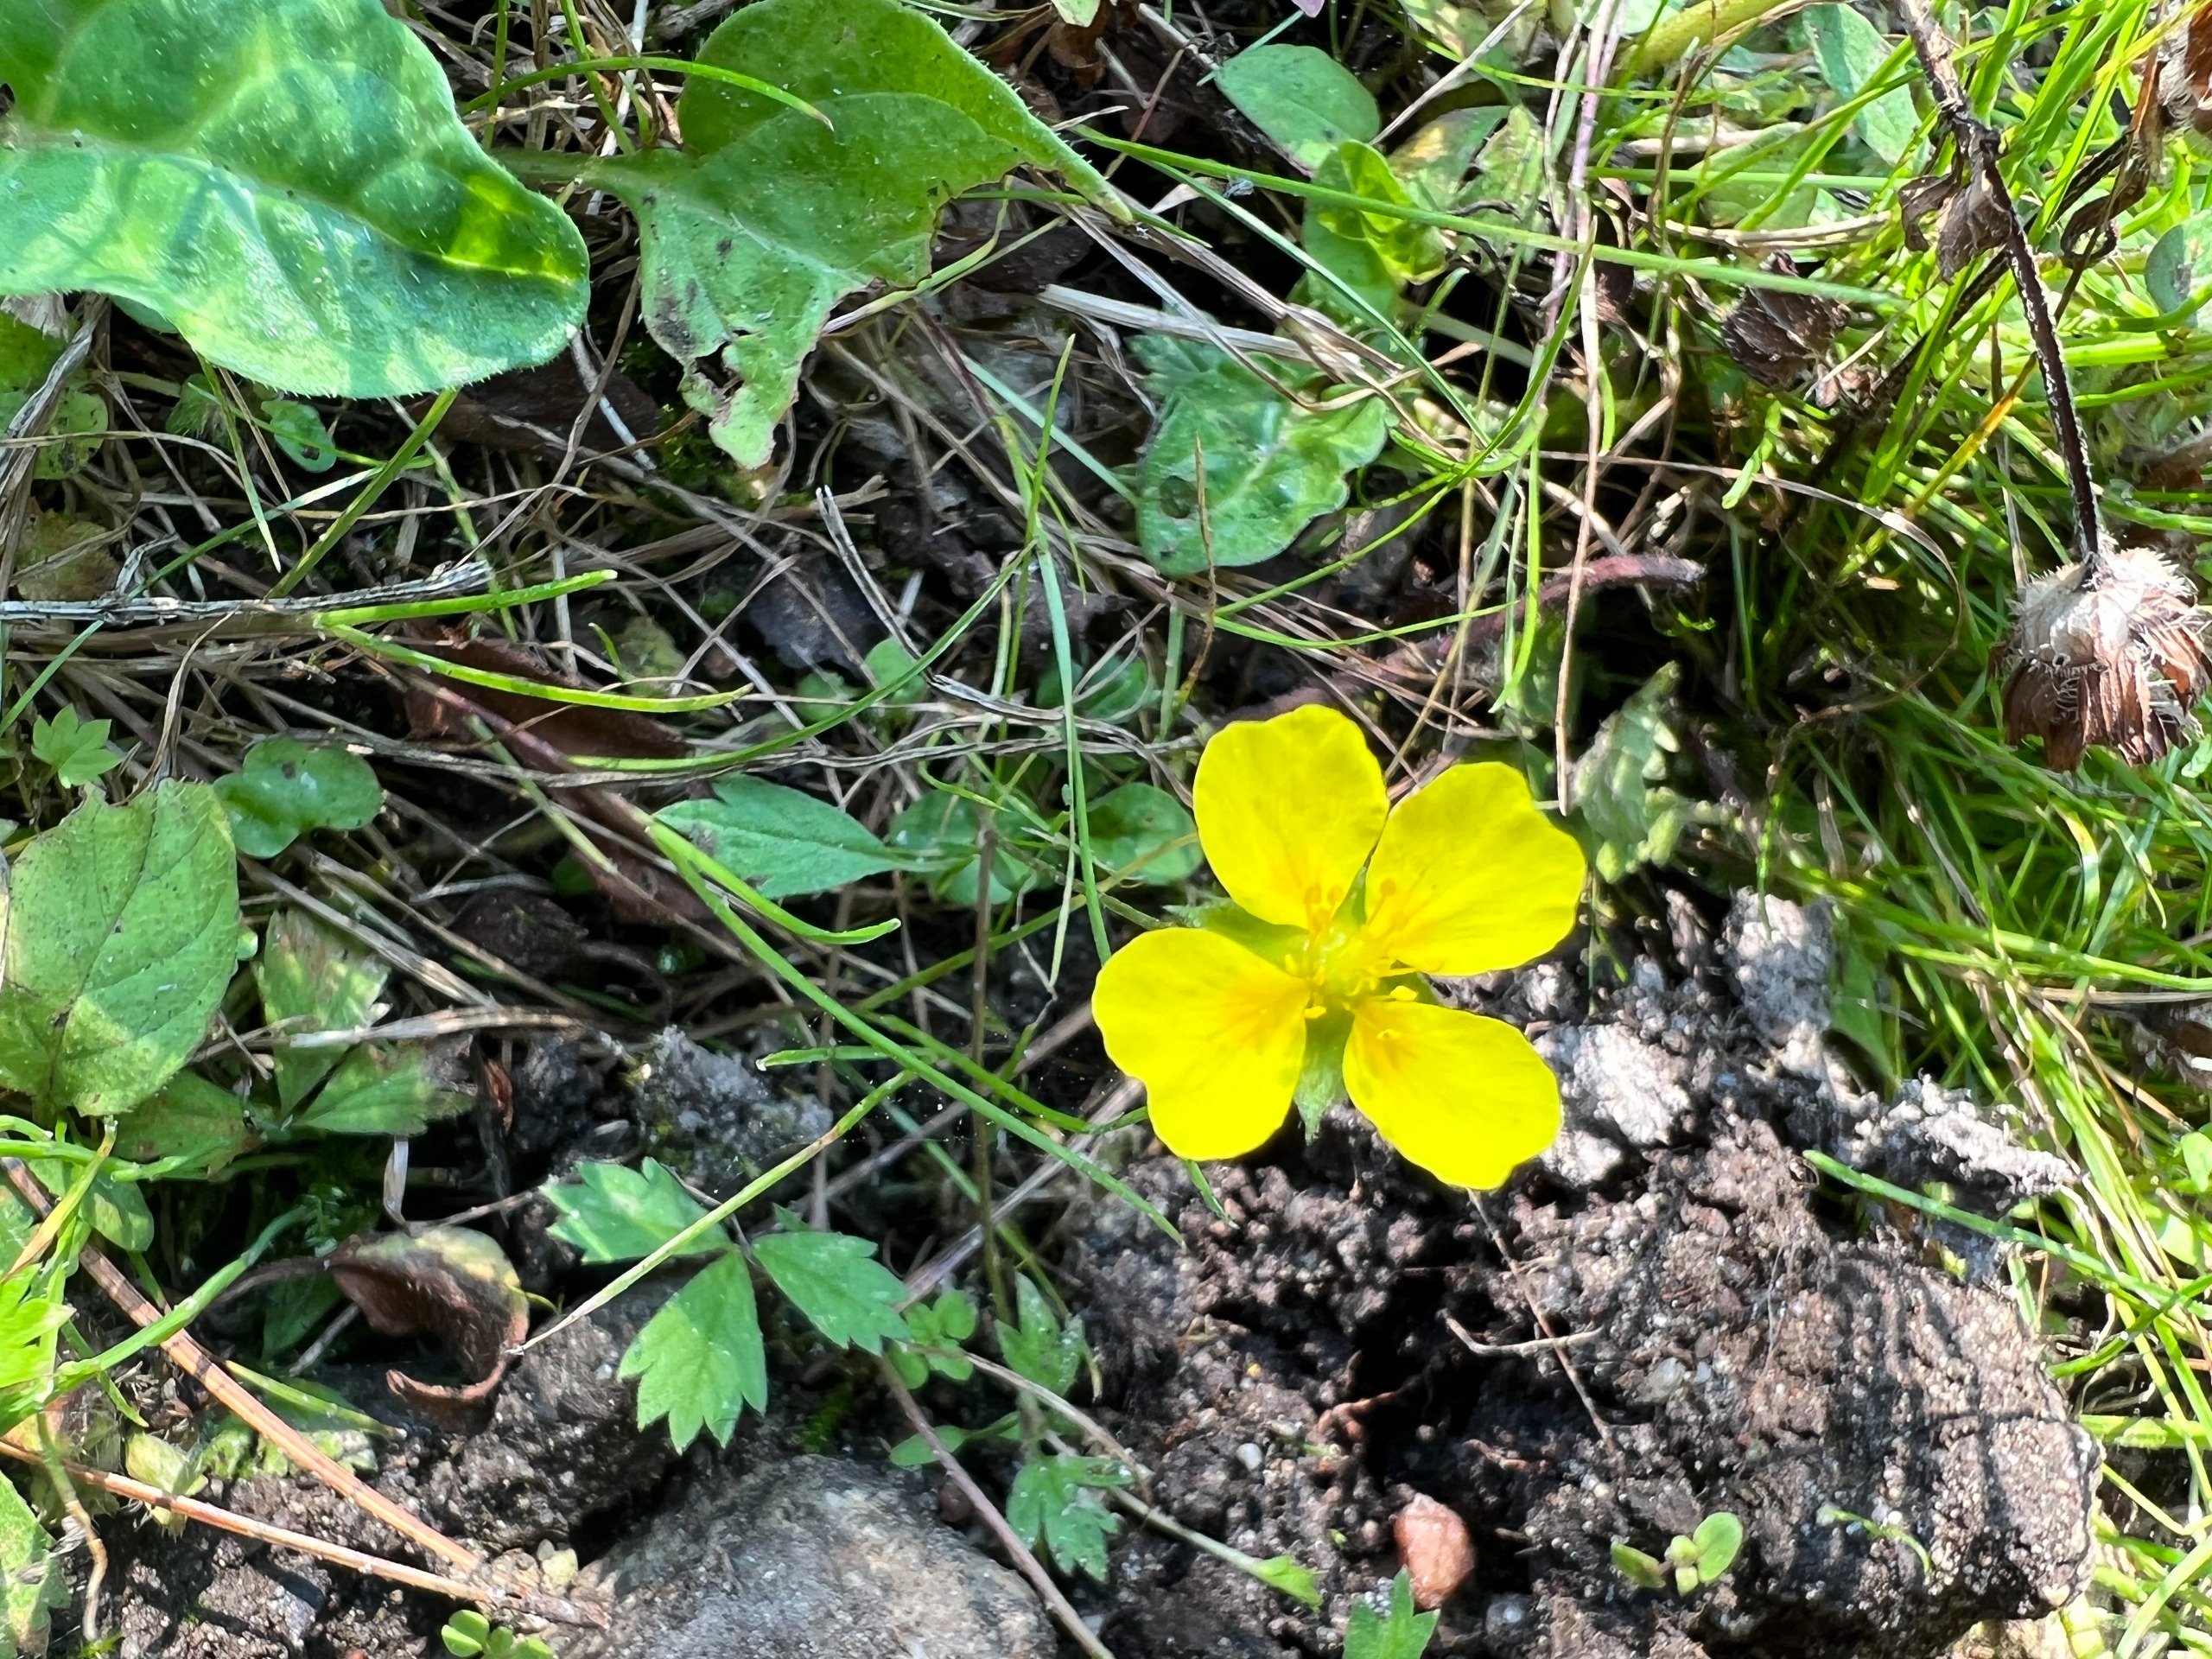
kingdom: Plantae
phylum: Tracheophyta
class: Magnoliopsida
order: Rosales
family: Rosaceae
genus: Potentilla
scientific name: Potentilla anglica
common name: Liggende potentil
